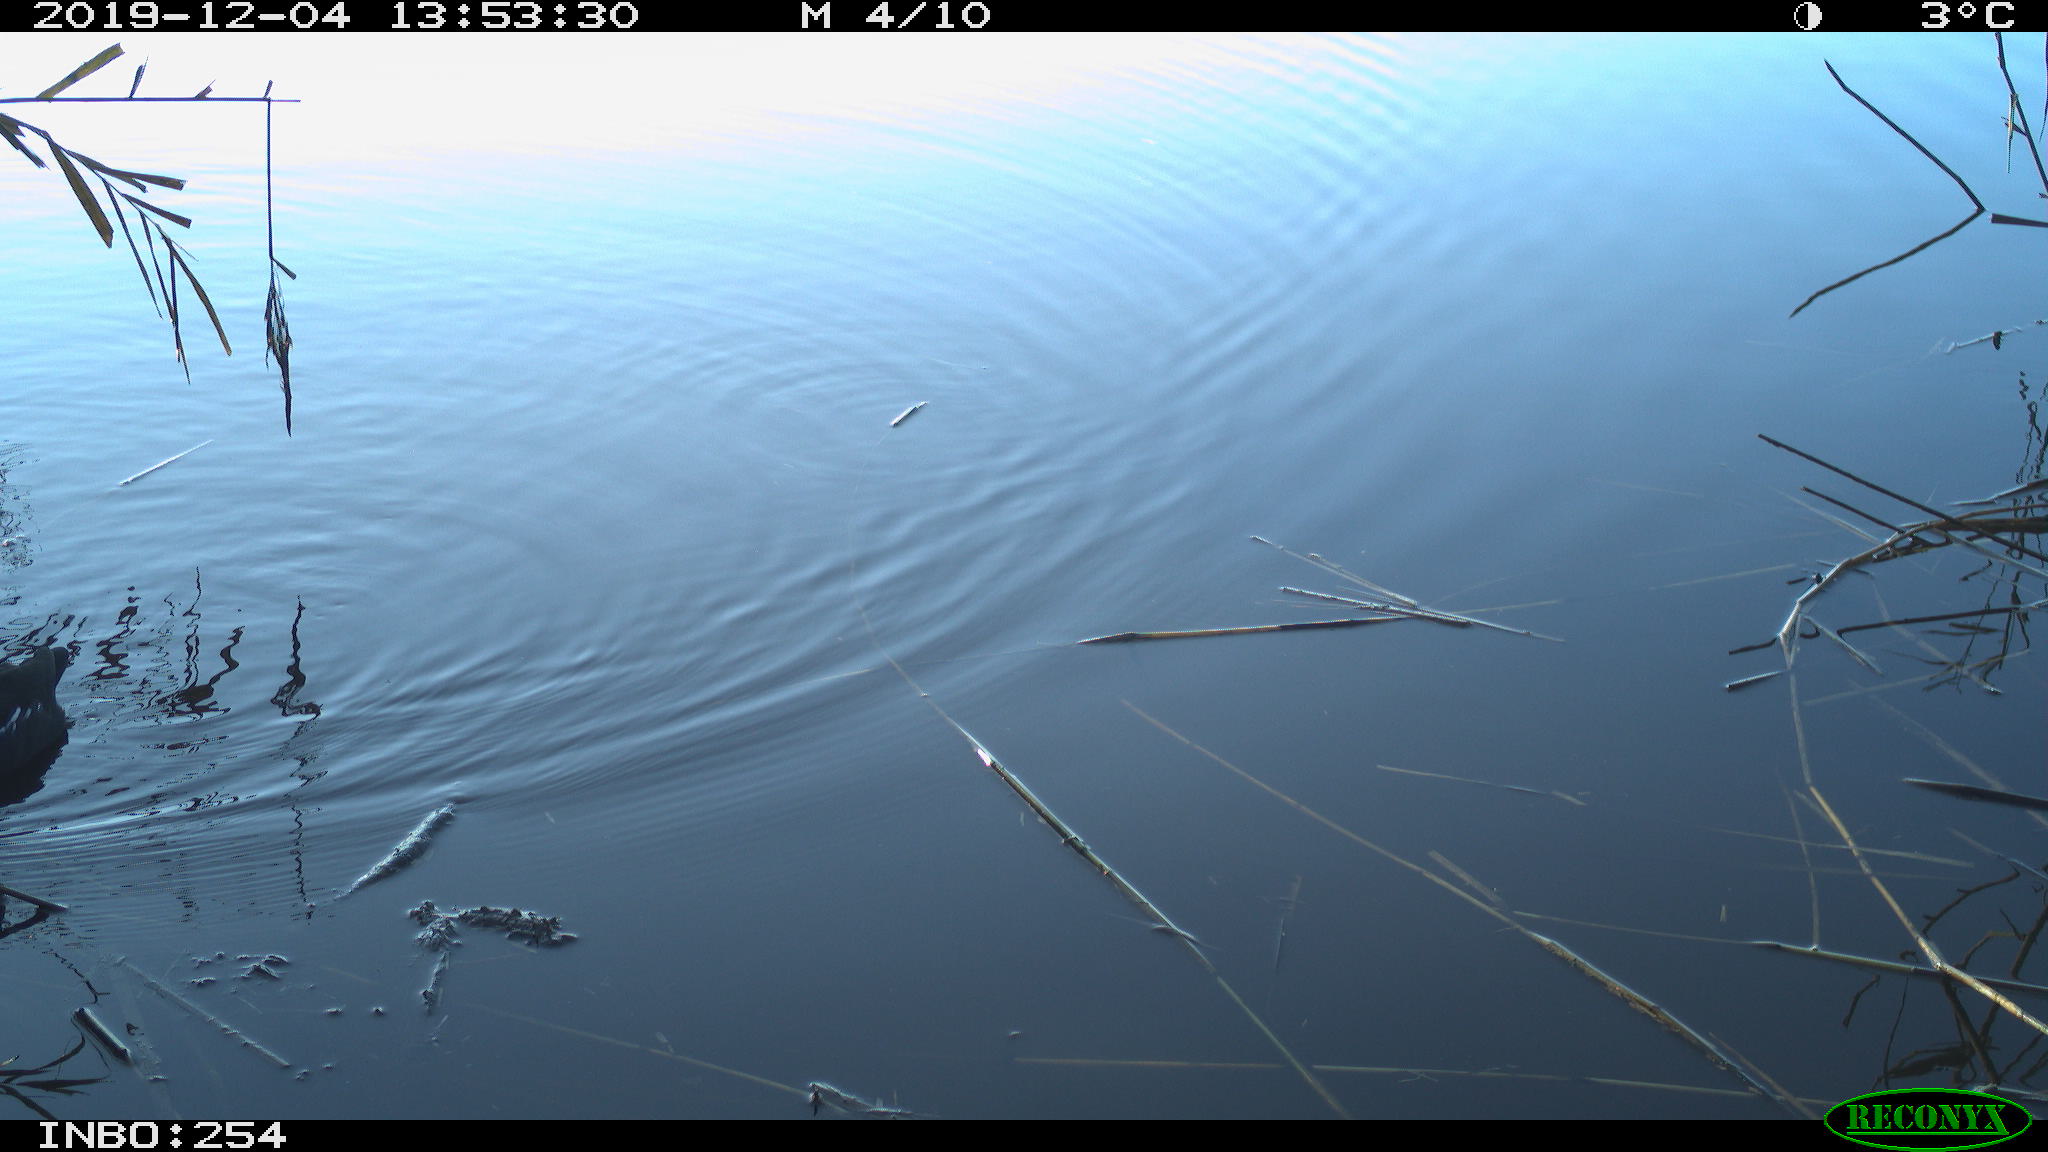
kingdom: Animalia
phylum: Chordata
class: Aves
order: Gruiformes
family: Rallidae
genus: Gallinula
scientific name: Gallinula chloropus
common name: Common moorhen
